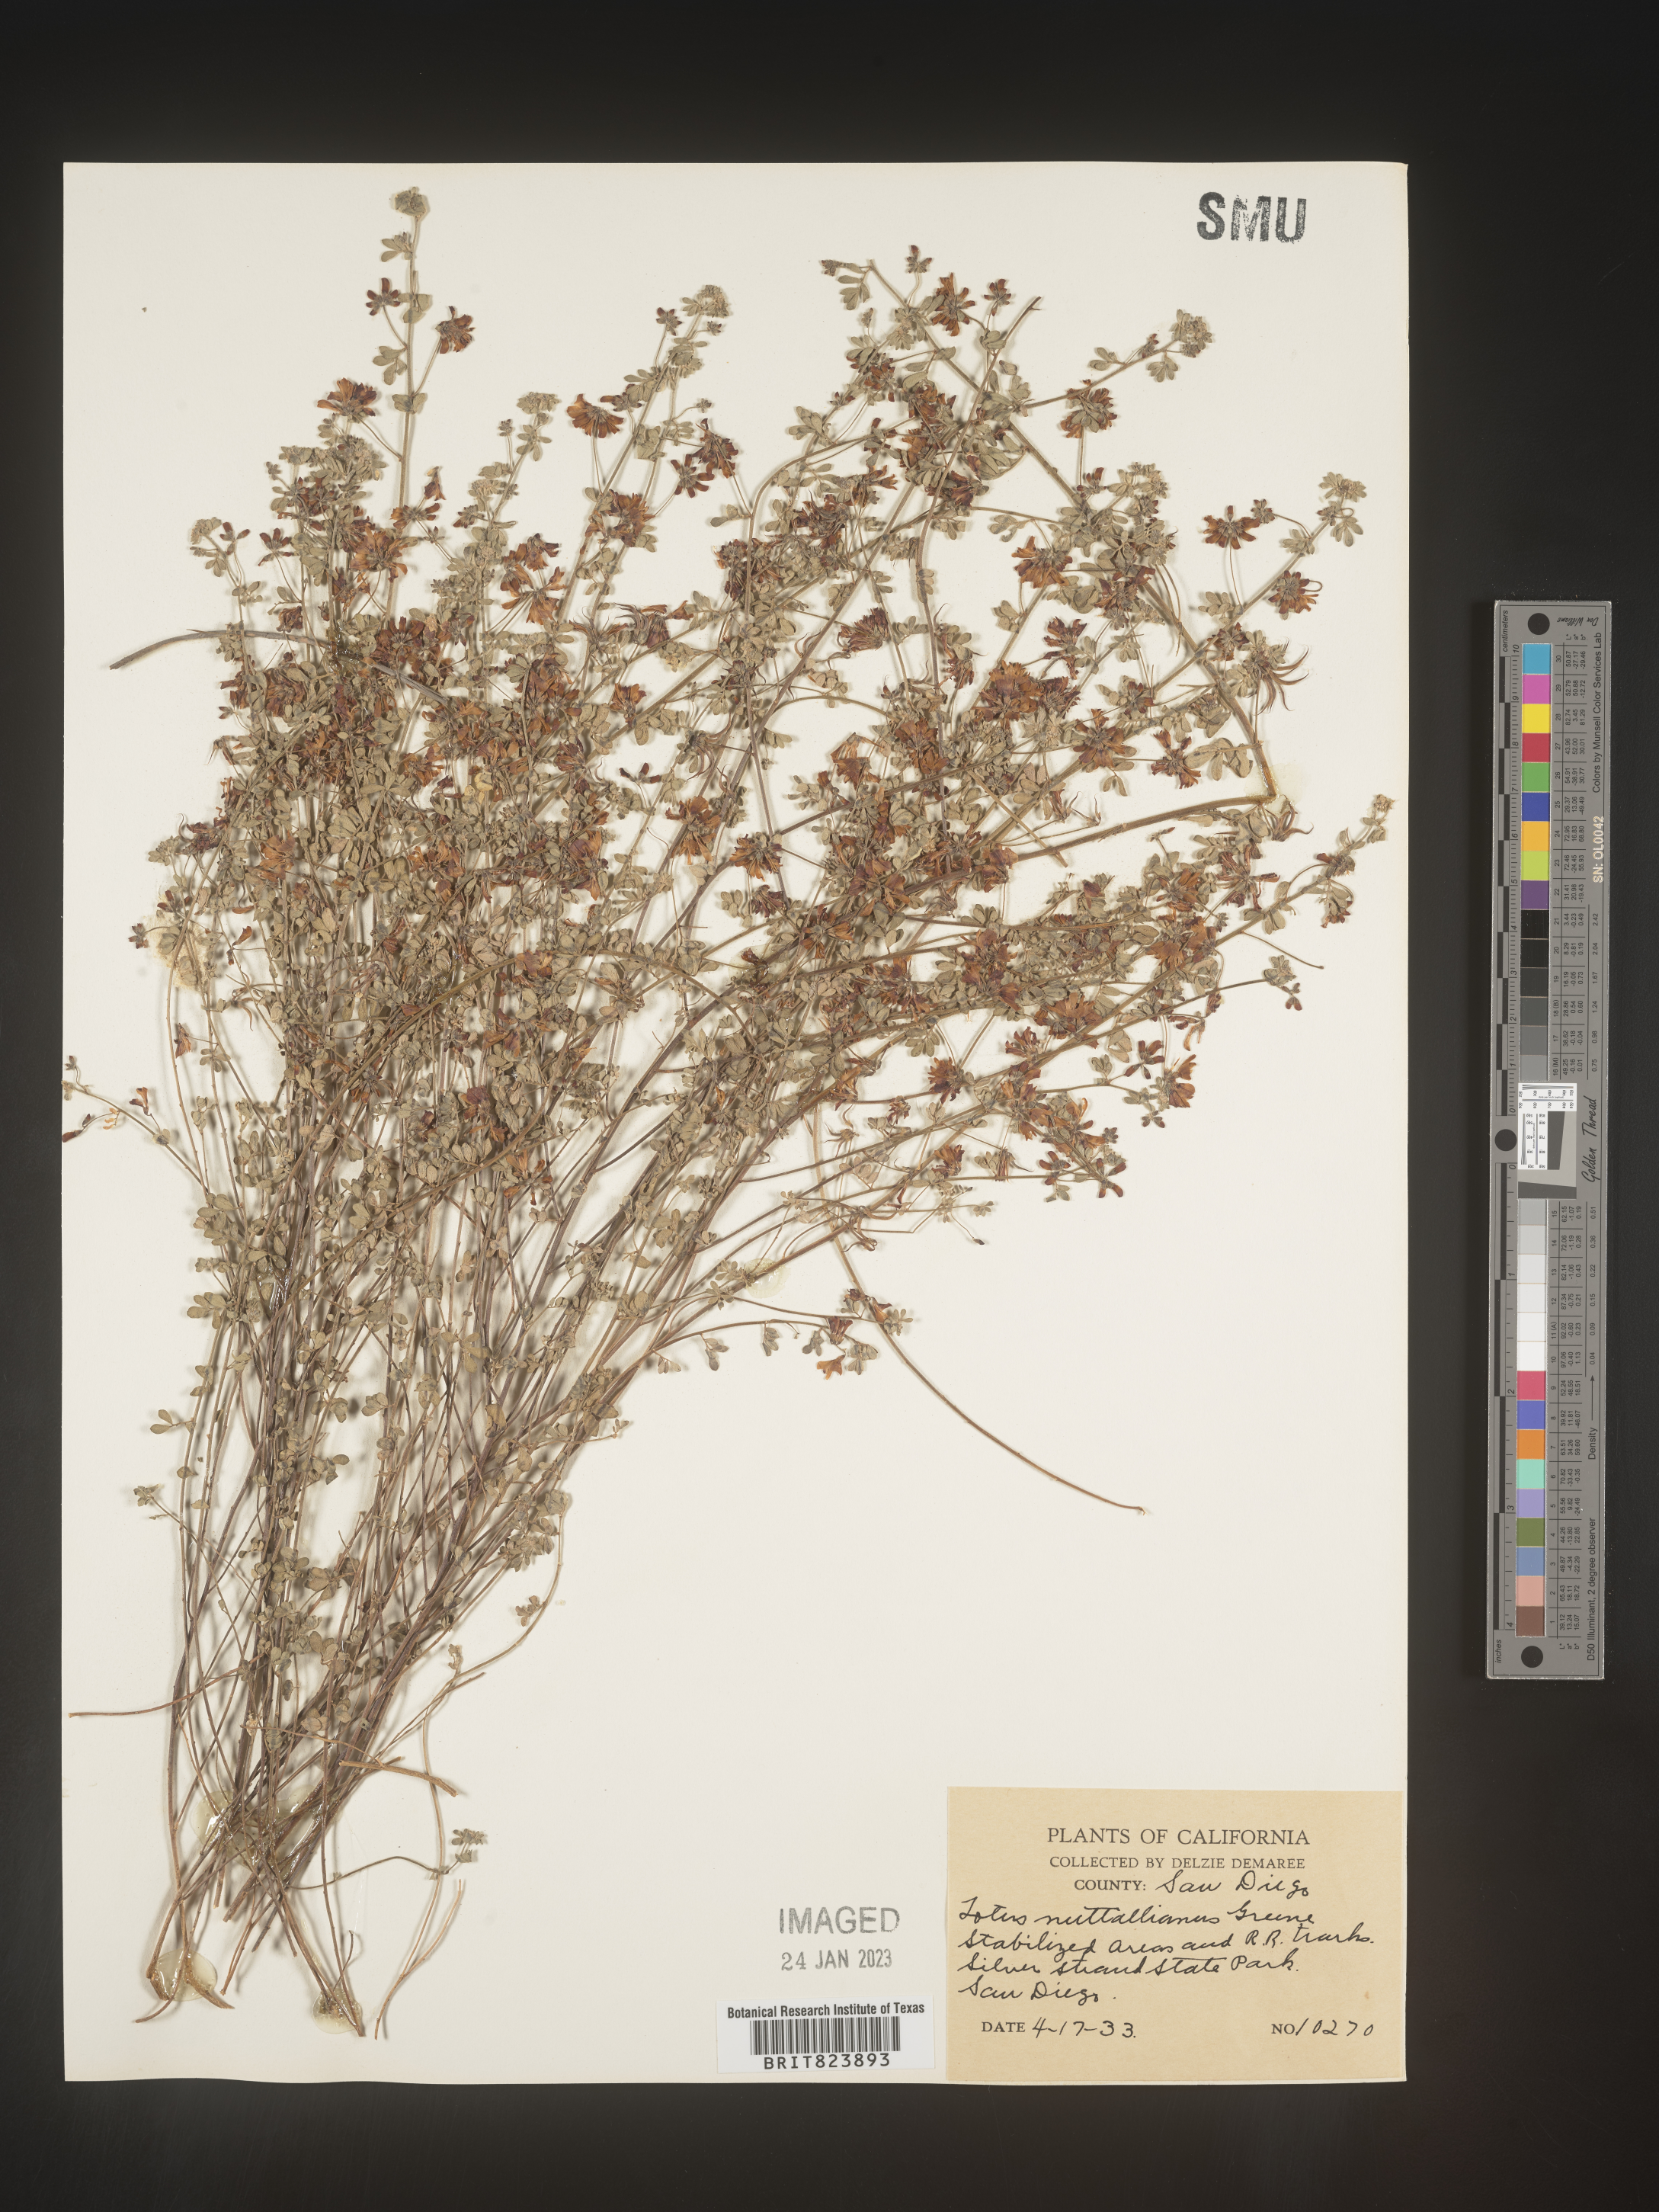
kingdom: Plantae
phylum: Tracheophyta
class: Magnoliopsida
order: Fabales
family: Fabaceae
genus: Lotus
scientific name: Lotus
